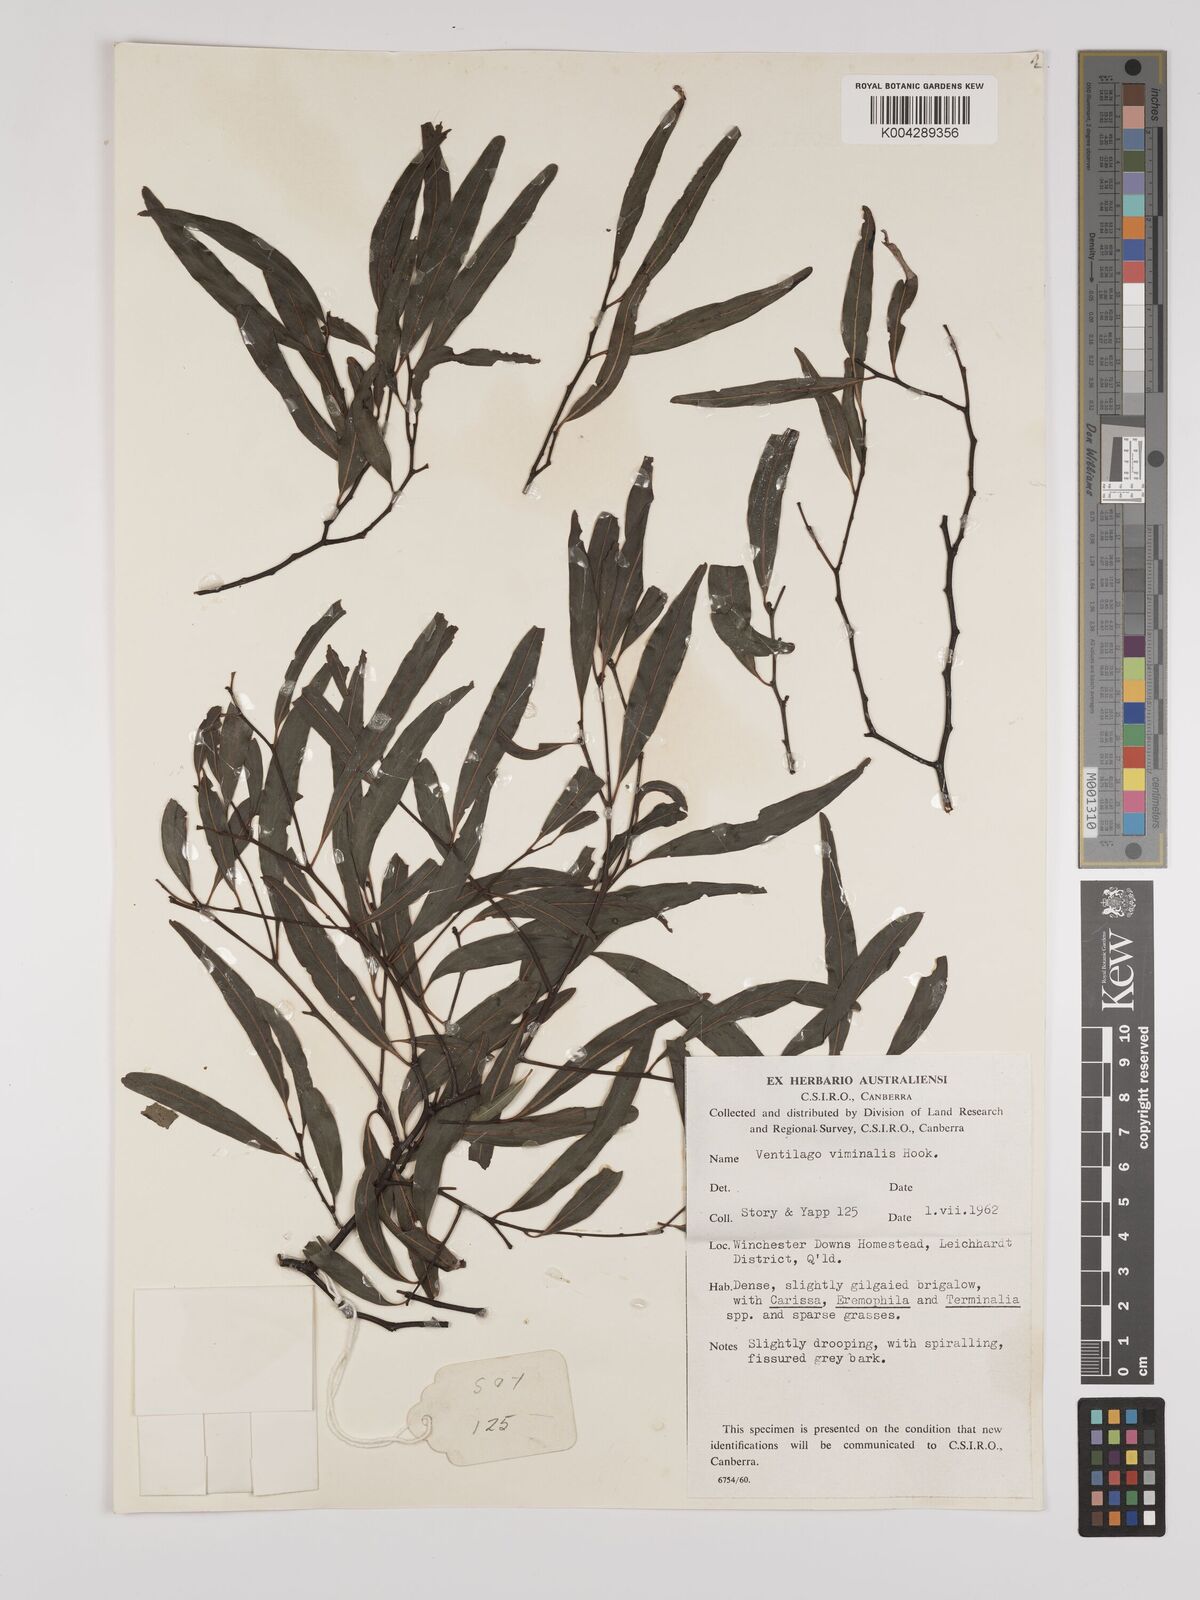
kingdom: Plantae
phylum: Tracheophyta
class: Magnoliopsida
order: Rosales
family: Rhamnaceae
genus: Ventilago
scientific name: Ventilago viminalis
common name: Medicine-bark
